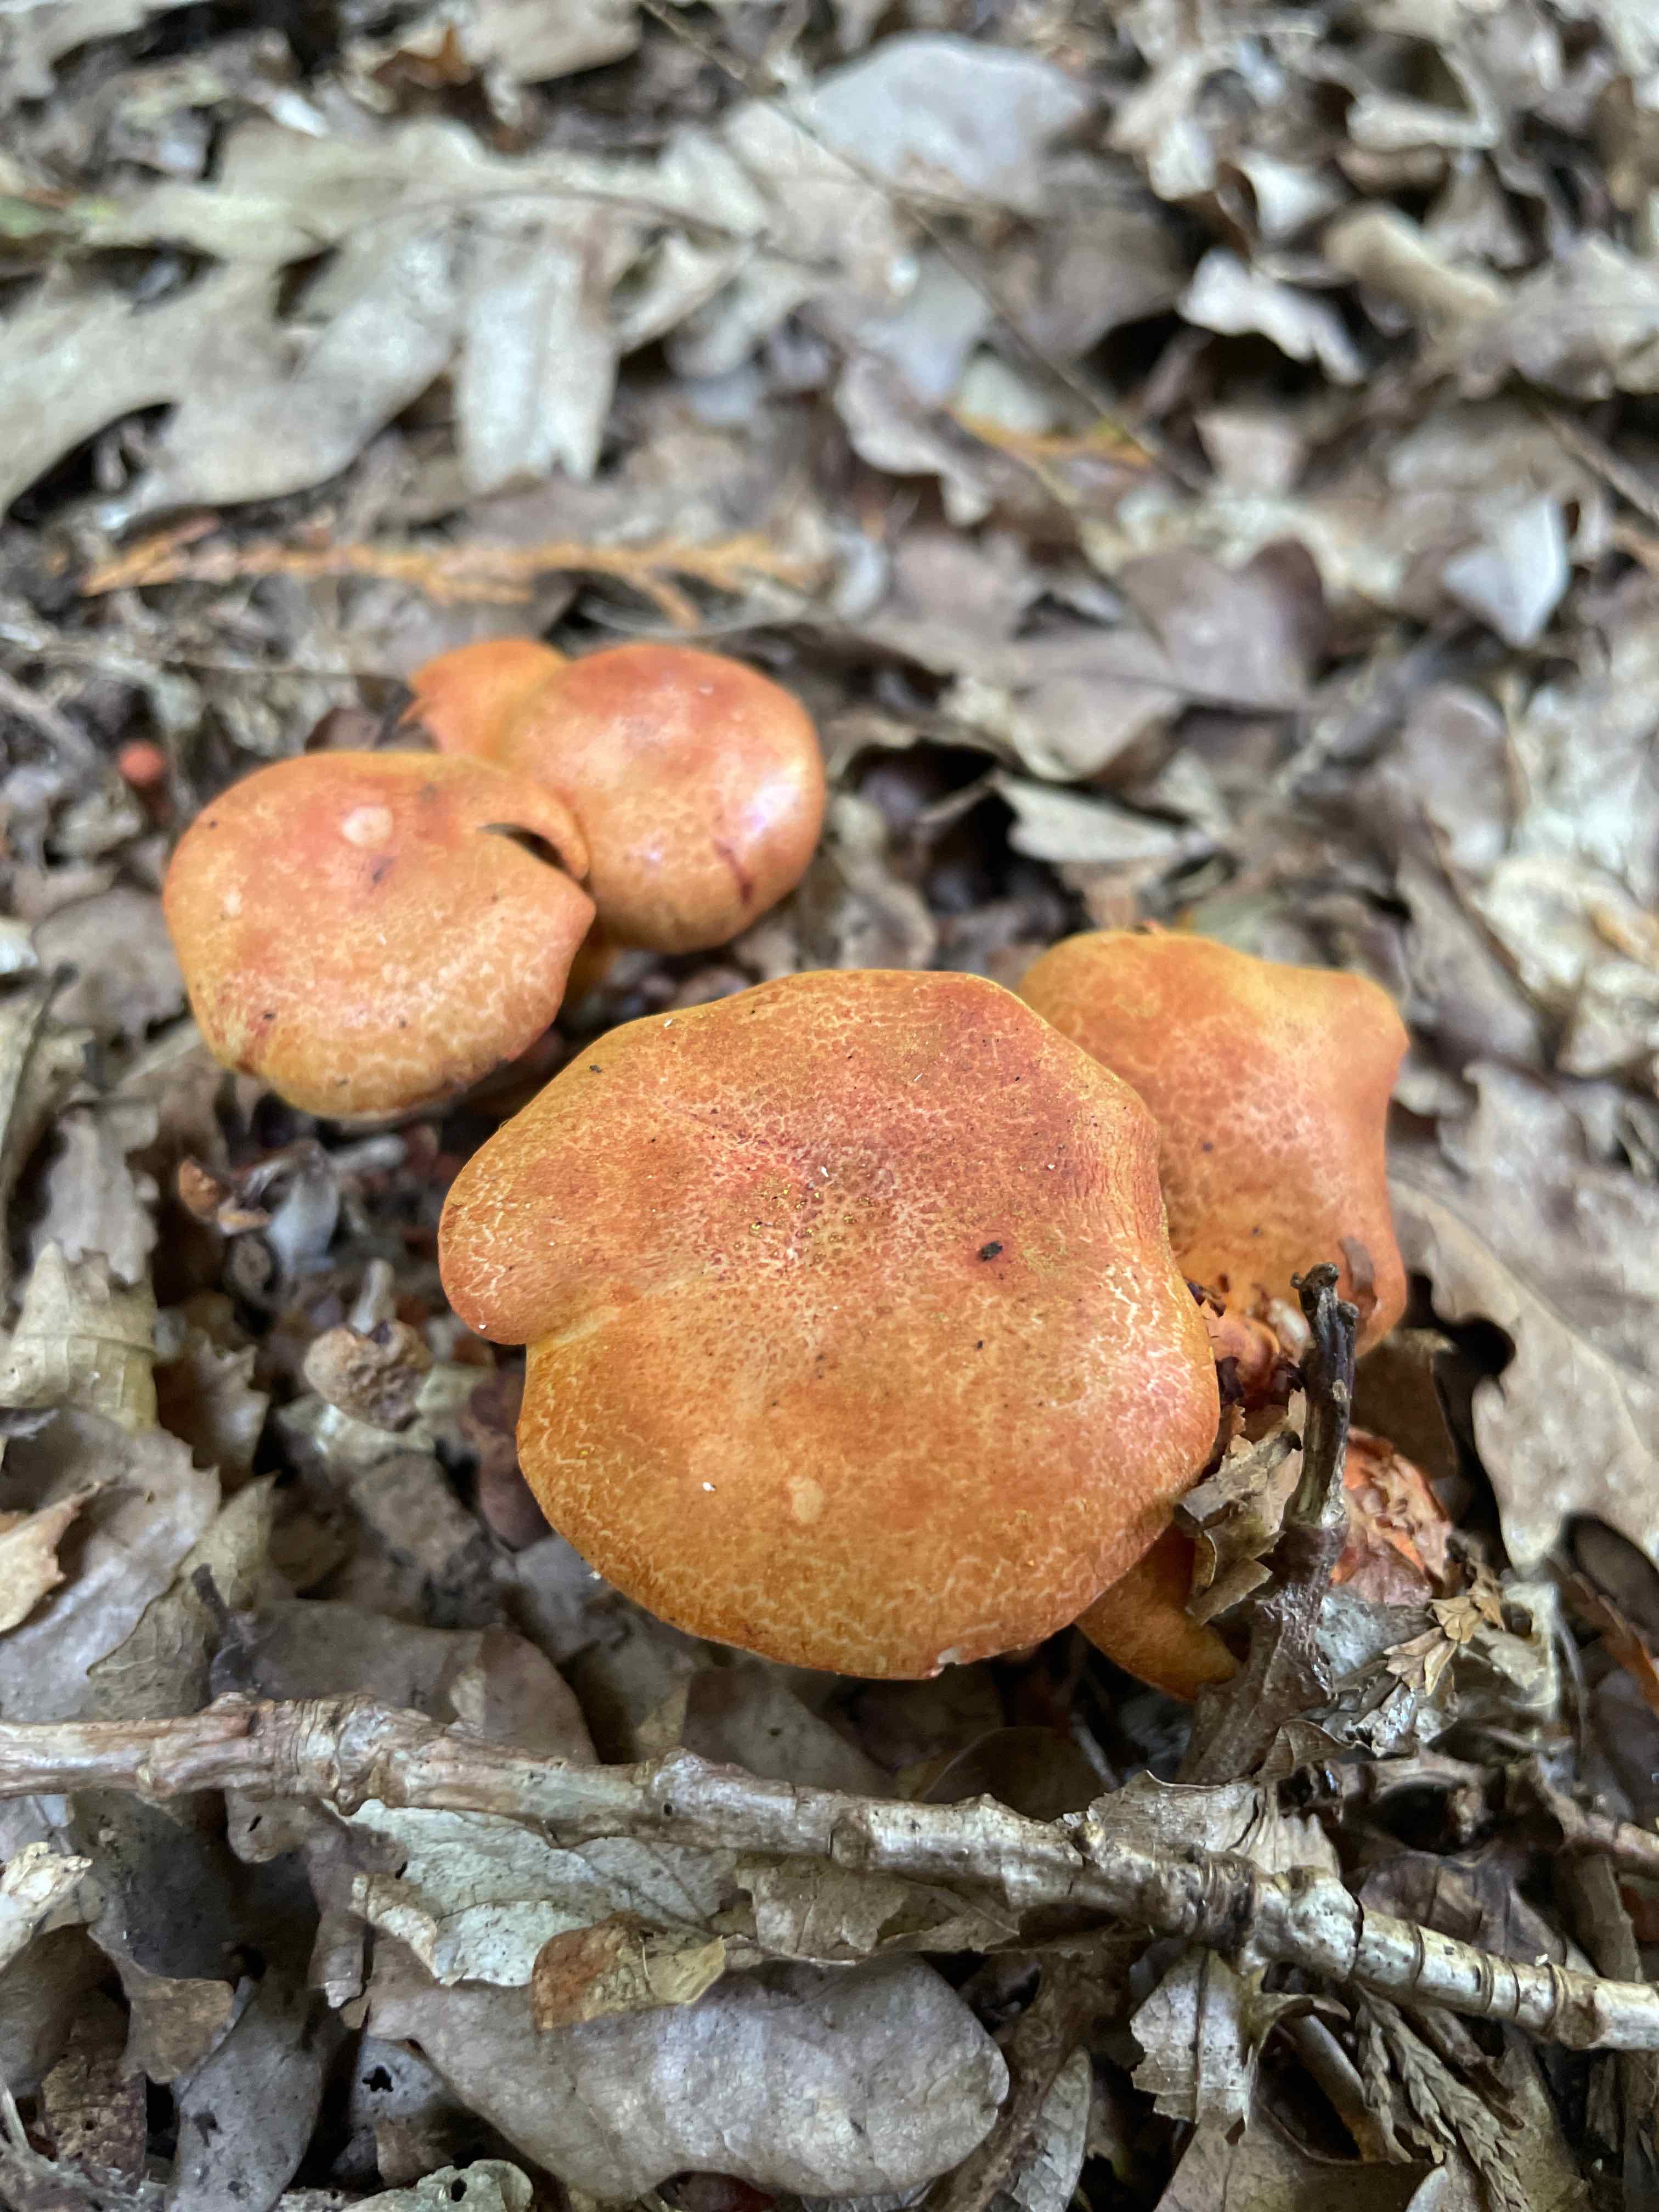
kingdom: Fungi
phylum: Basidiomycota
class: Agaricomycetes
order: Agaricales
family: Cortinariaceae
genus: Cortinarius
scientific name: Cortinarius bolaris
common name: cinnoberskællet slørhat
